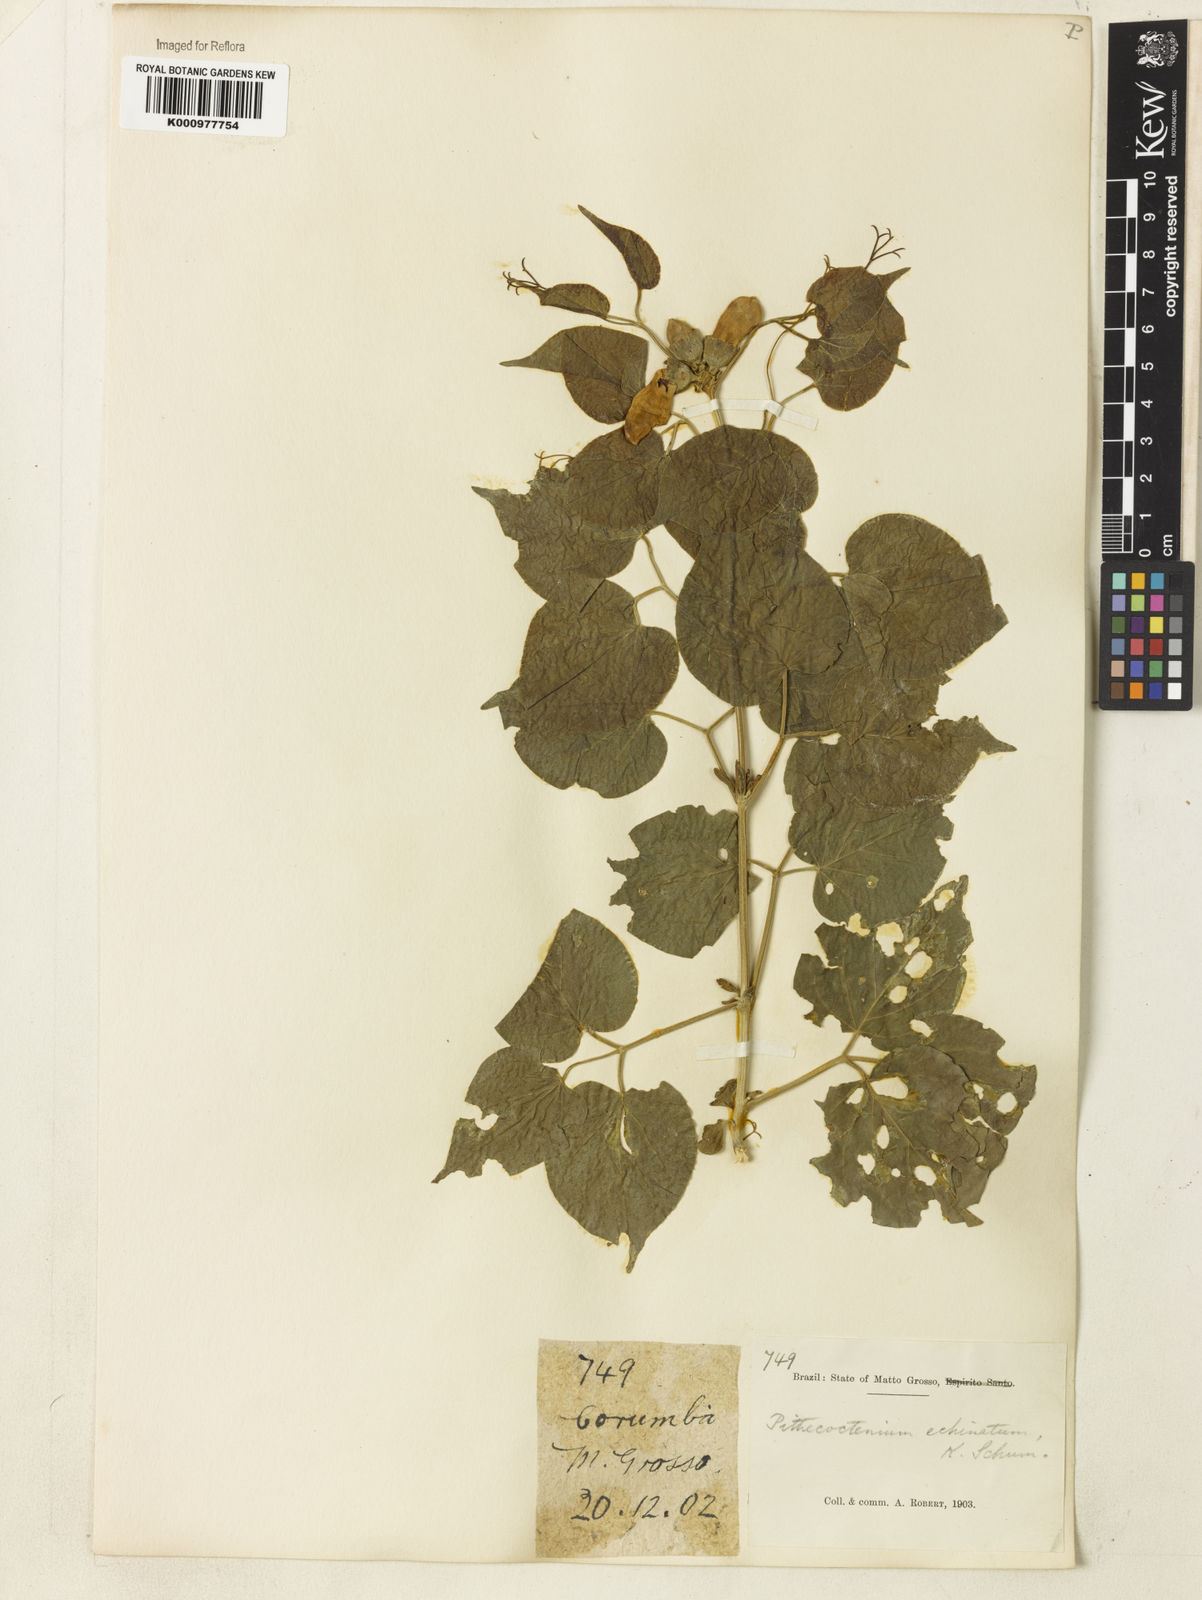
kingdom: Plantae
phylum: Tracheophyta
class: Magnoliopsida
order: Lamiales
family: Bignoniaceae
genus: Amphilophium
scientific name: Amphilophium crucigerum
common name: Monkey comb
